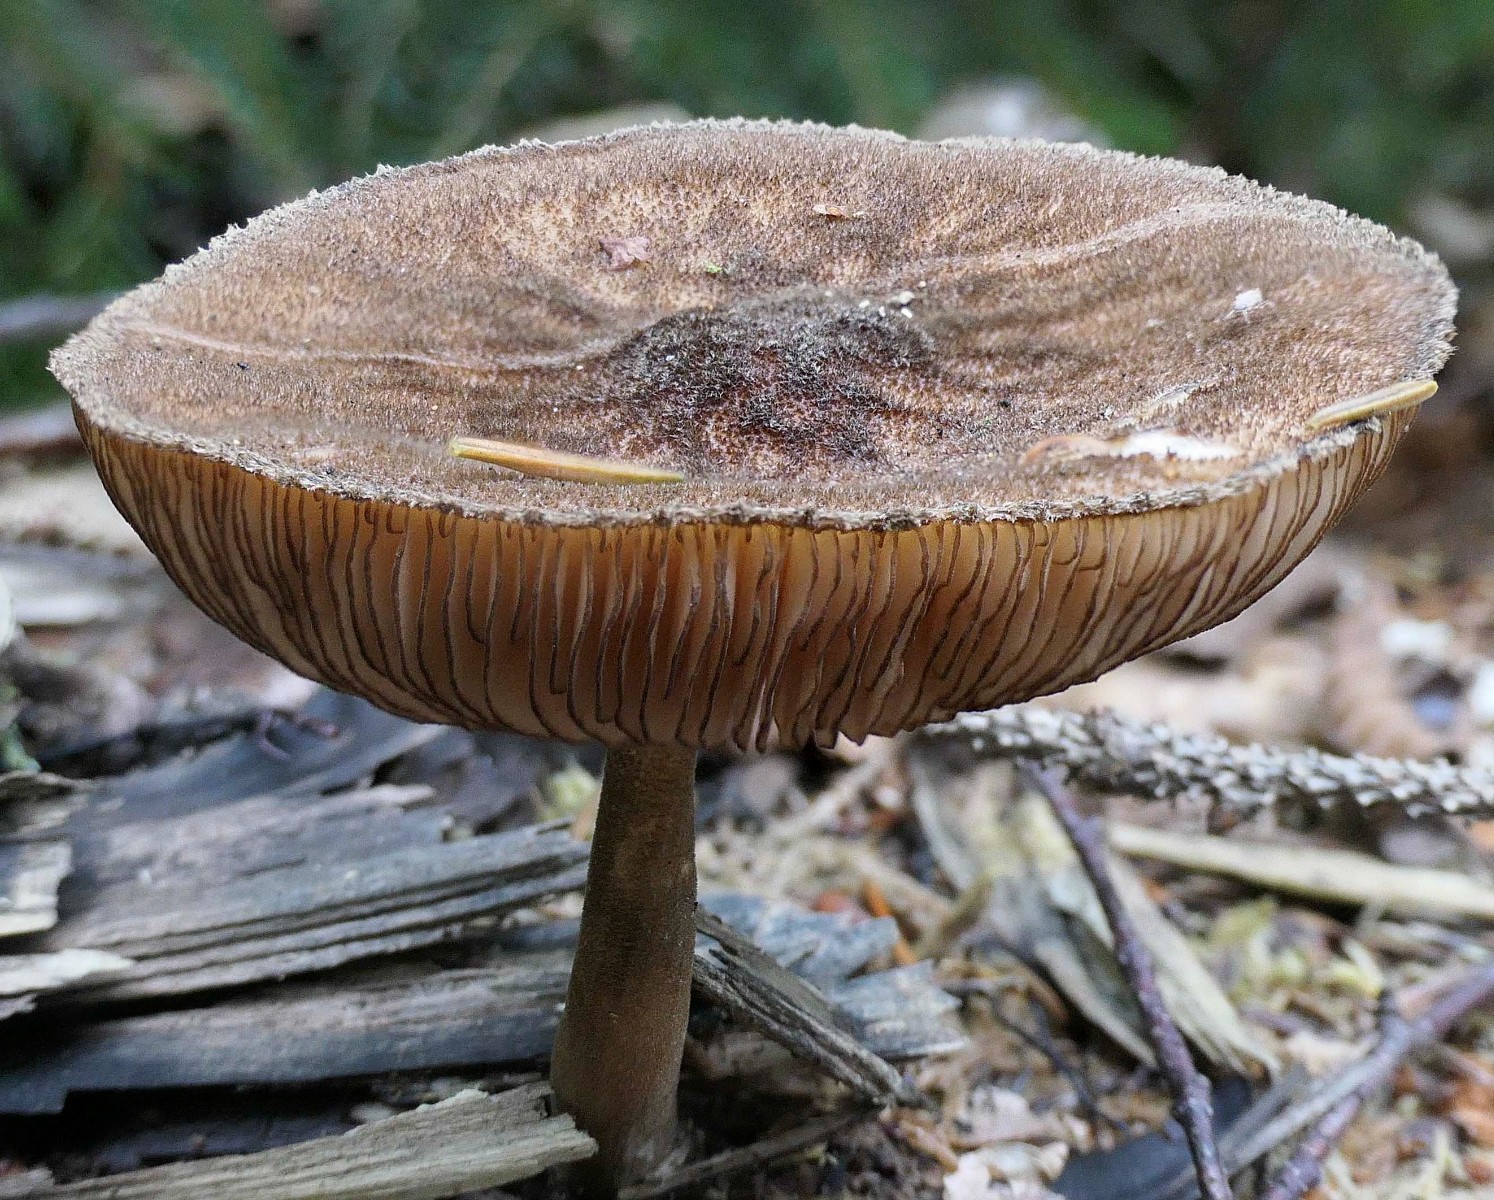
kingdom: Fungi
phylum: Basidiomycota
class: Agaricomycetes
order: Agaricales
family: Pluteaceae
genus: Pluteus
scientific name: Pluteus umbrosus
